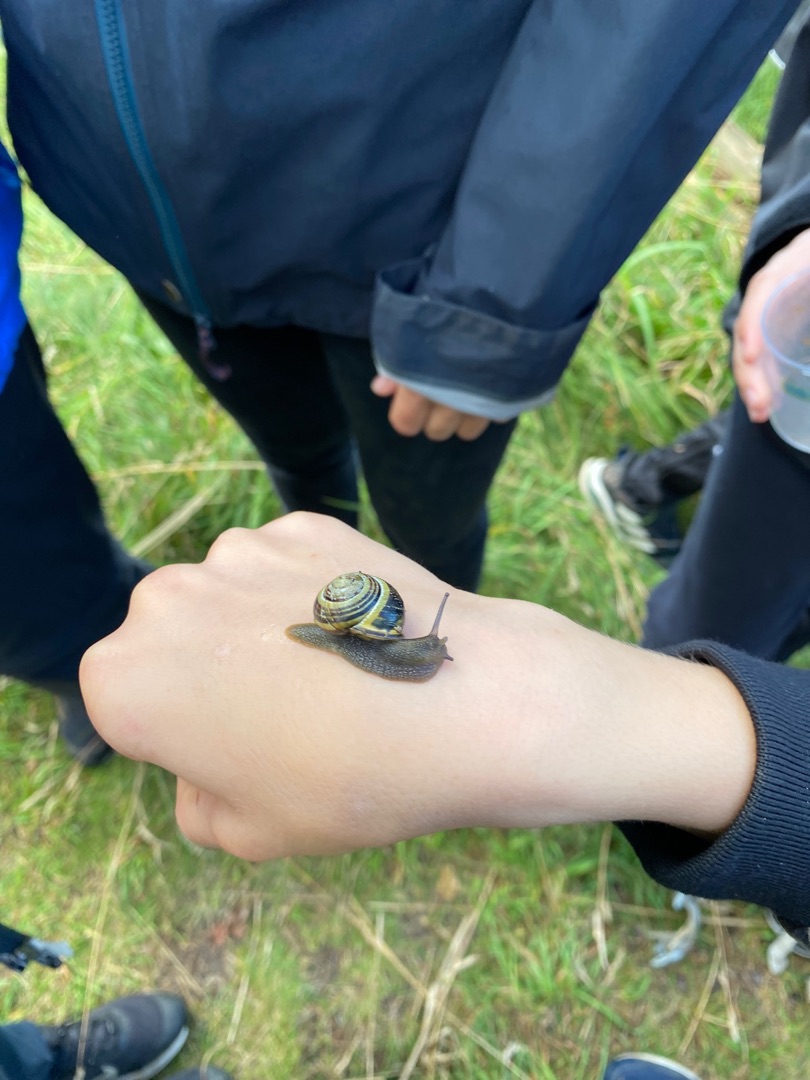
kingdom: Animalia
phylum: Mollusca
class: Gastropoda
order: Stylommatophora
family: Helicidae
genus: Cepaea
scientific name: Cepaea nemoralis
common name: Lundsnegl
